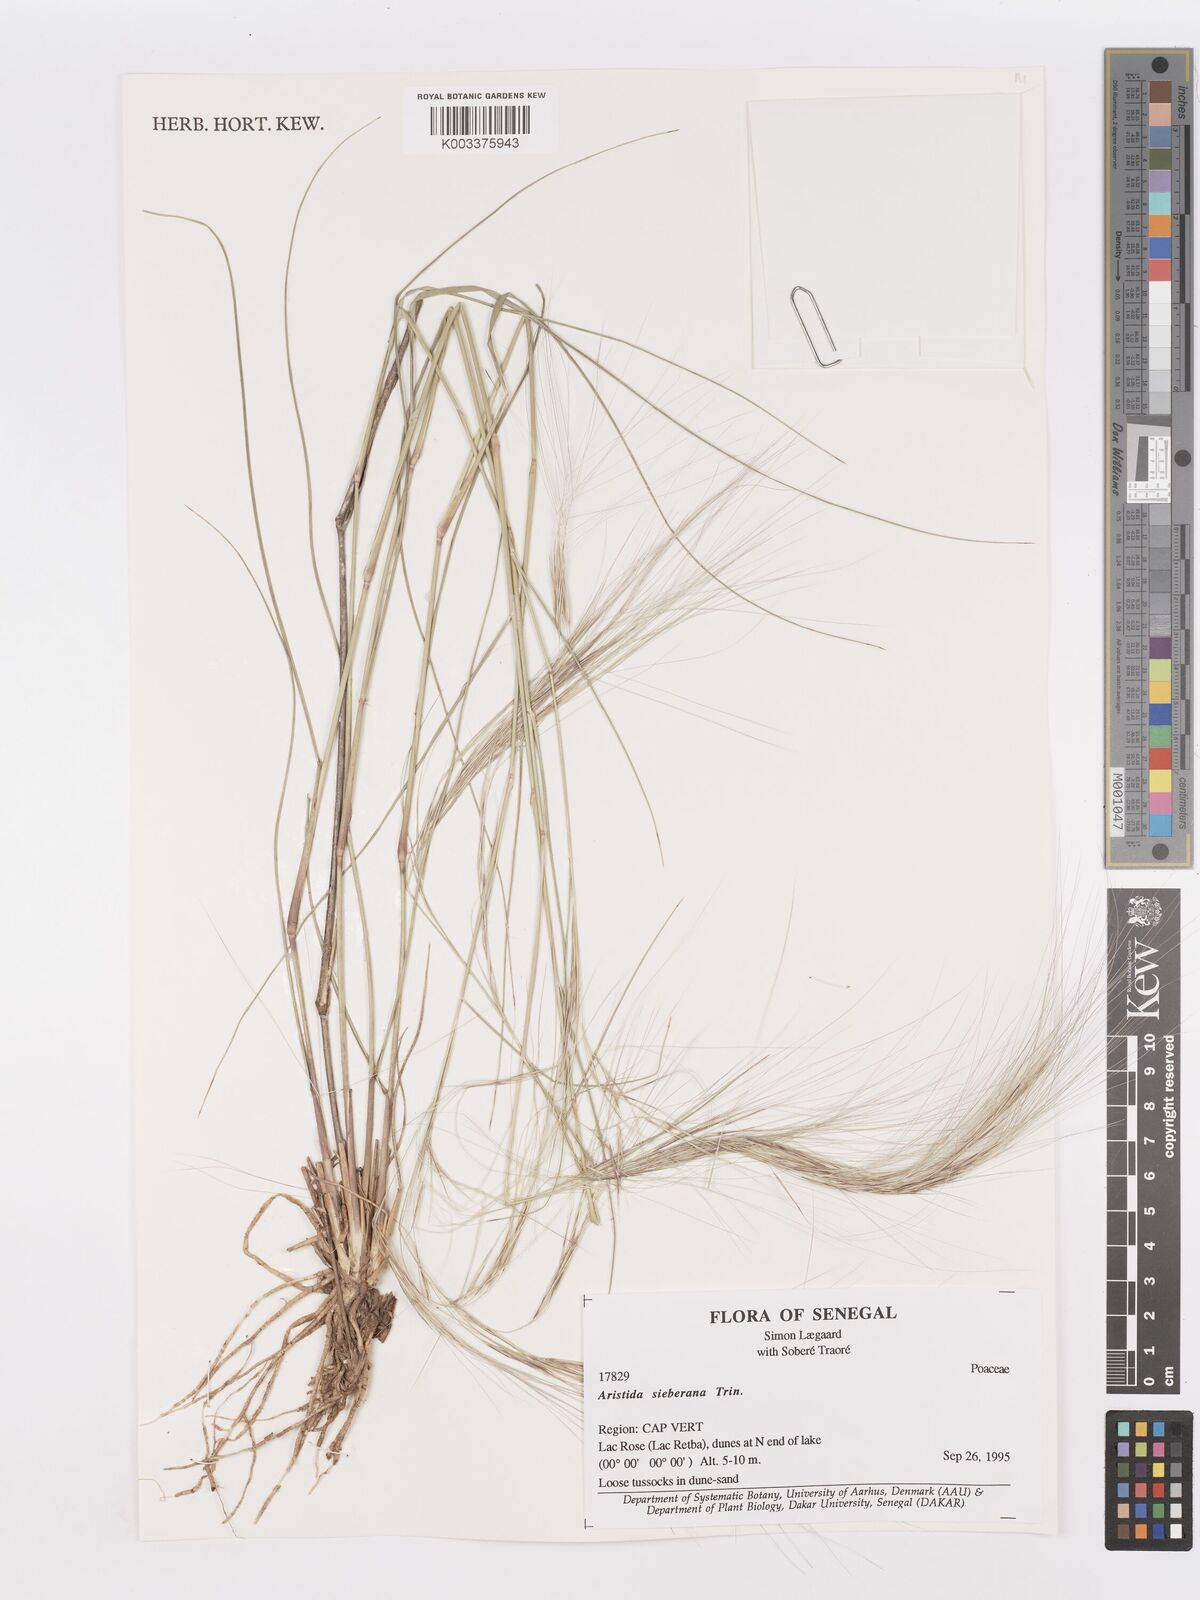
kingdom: Plantae
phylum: Tracheophyta
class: Liliopsida
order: Poales
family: Poaceae
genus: Aristida
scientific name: Aristida sieberiana
